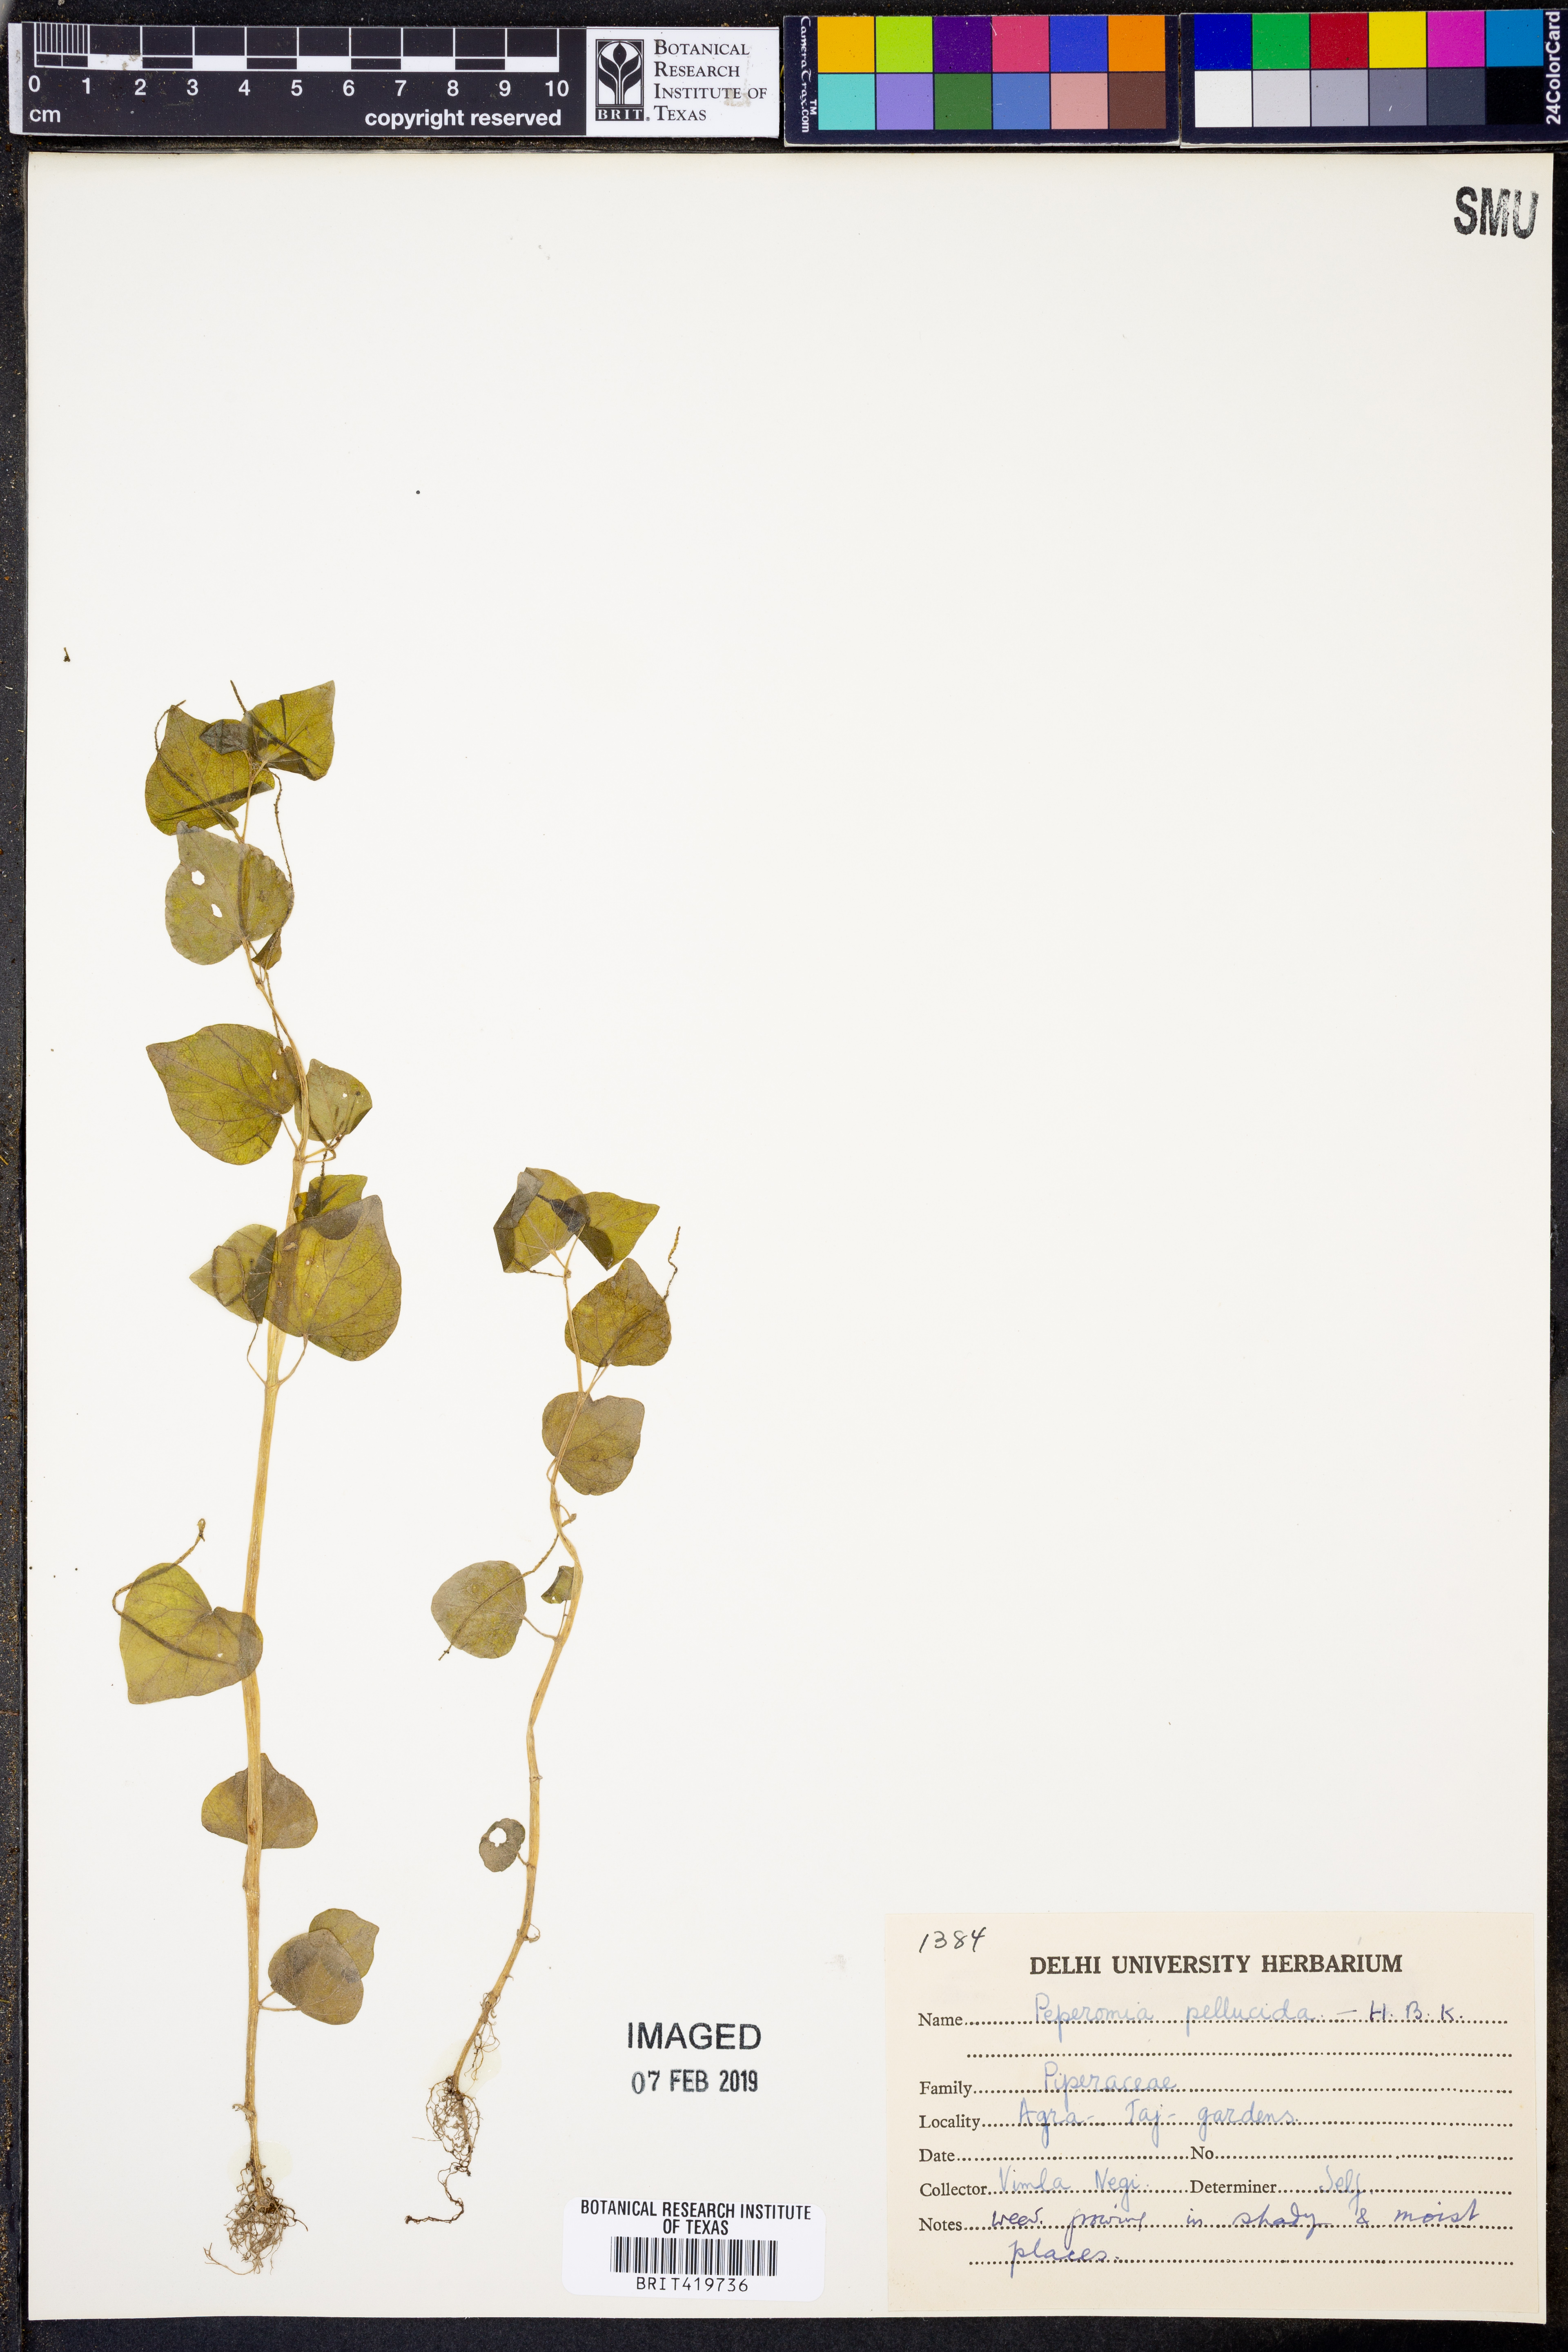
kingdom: Plantae
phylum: Tracheophyta
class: Magnoliopsida
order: Piperales
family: Piperaceae
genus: Peperomia
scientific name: Peperomia pellucida
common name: Man to man
